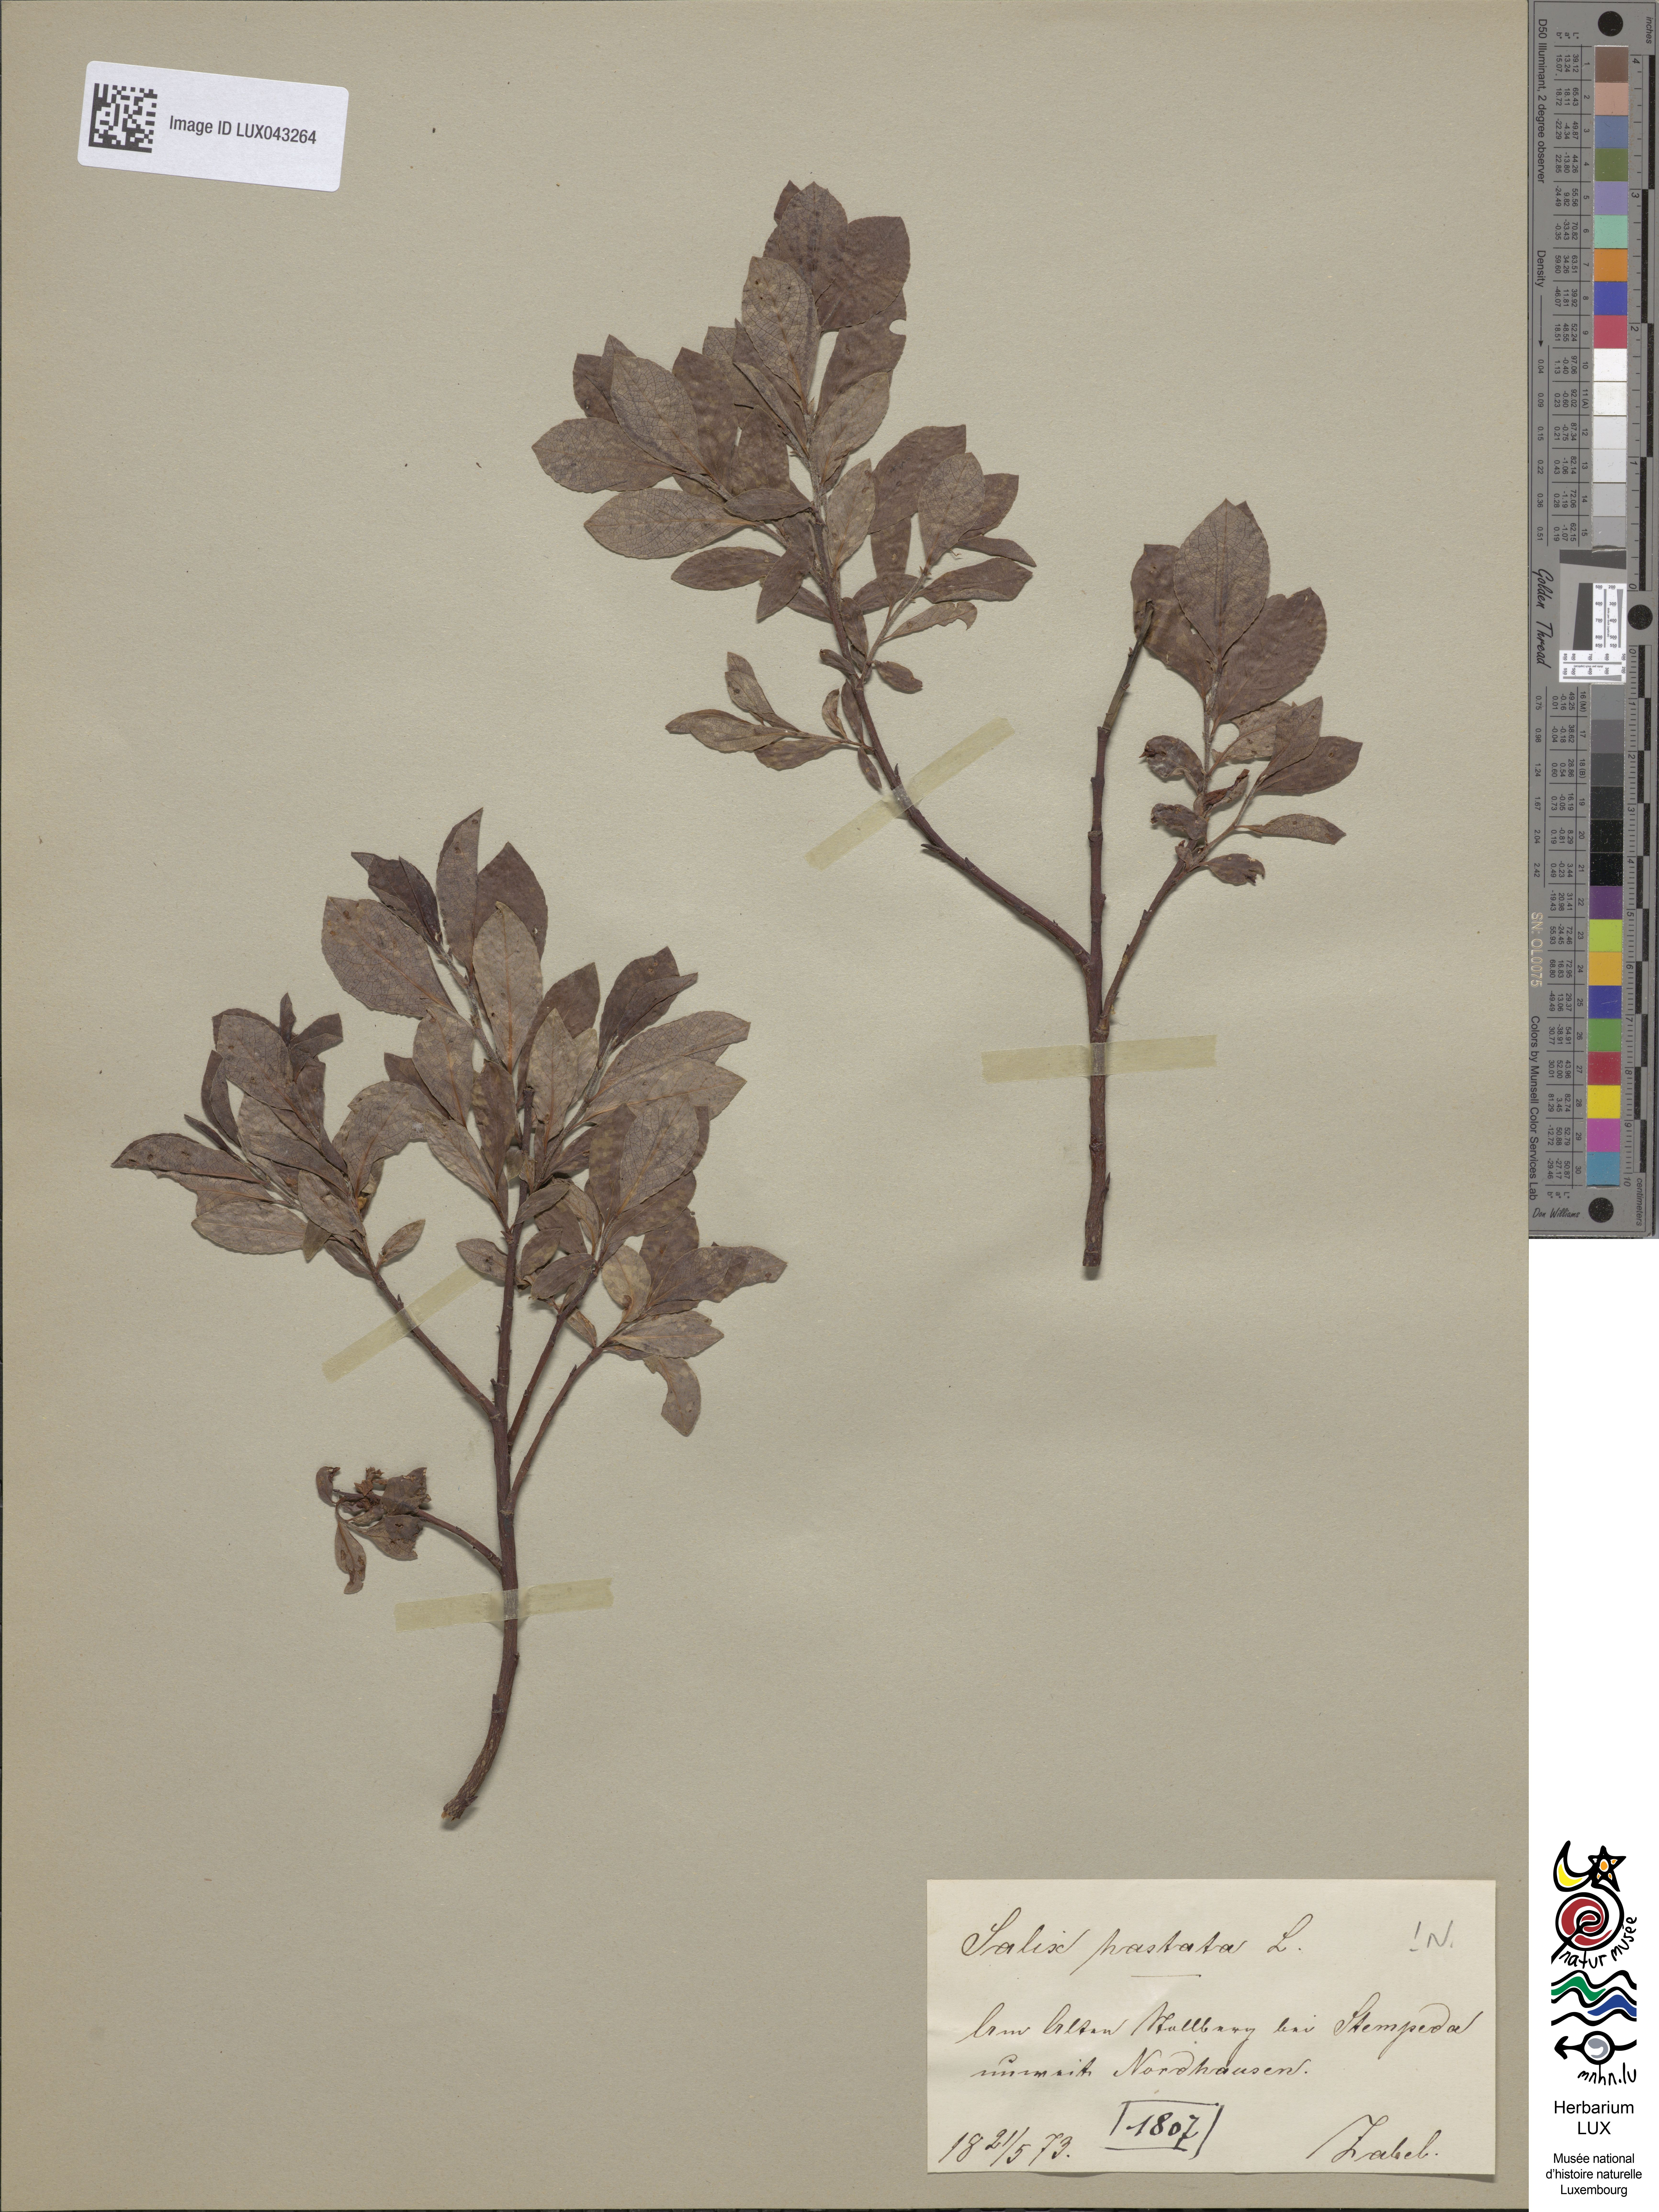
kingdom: Plantae
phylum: Tracheophyta
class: Magnoliopsida
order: Malpighiales
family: Salicaceae
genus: Salix
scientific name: Salix hastata
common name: Halberd willow
